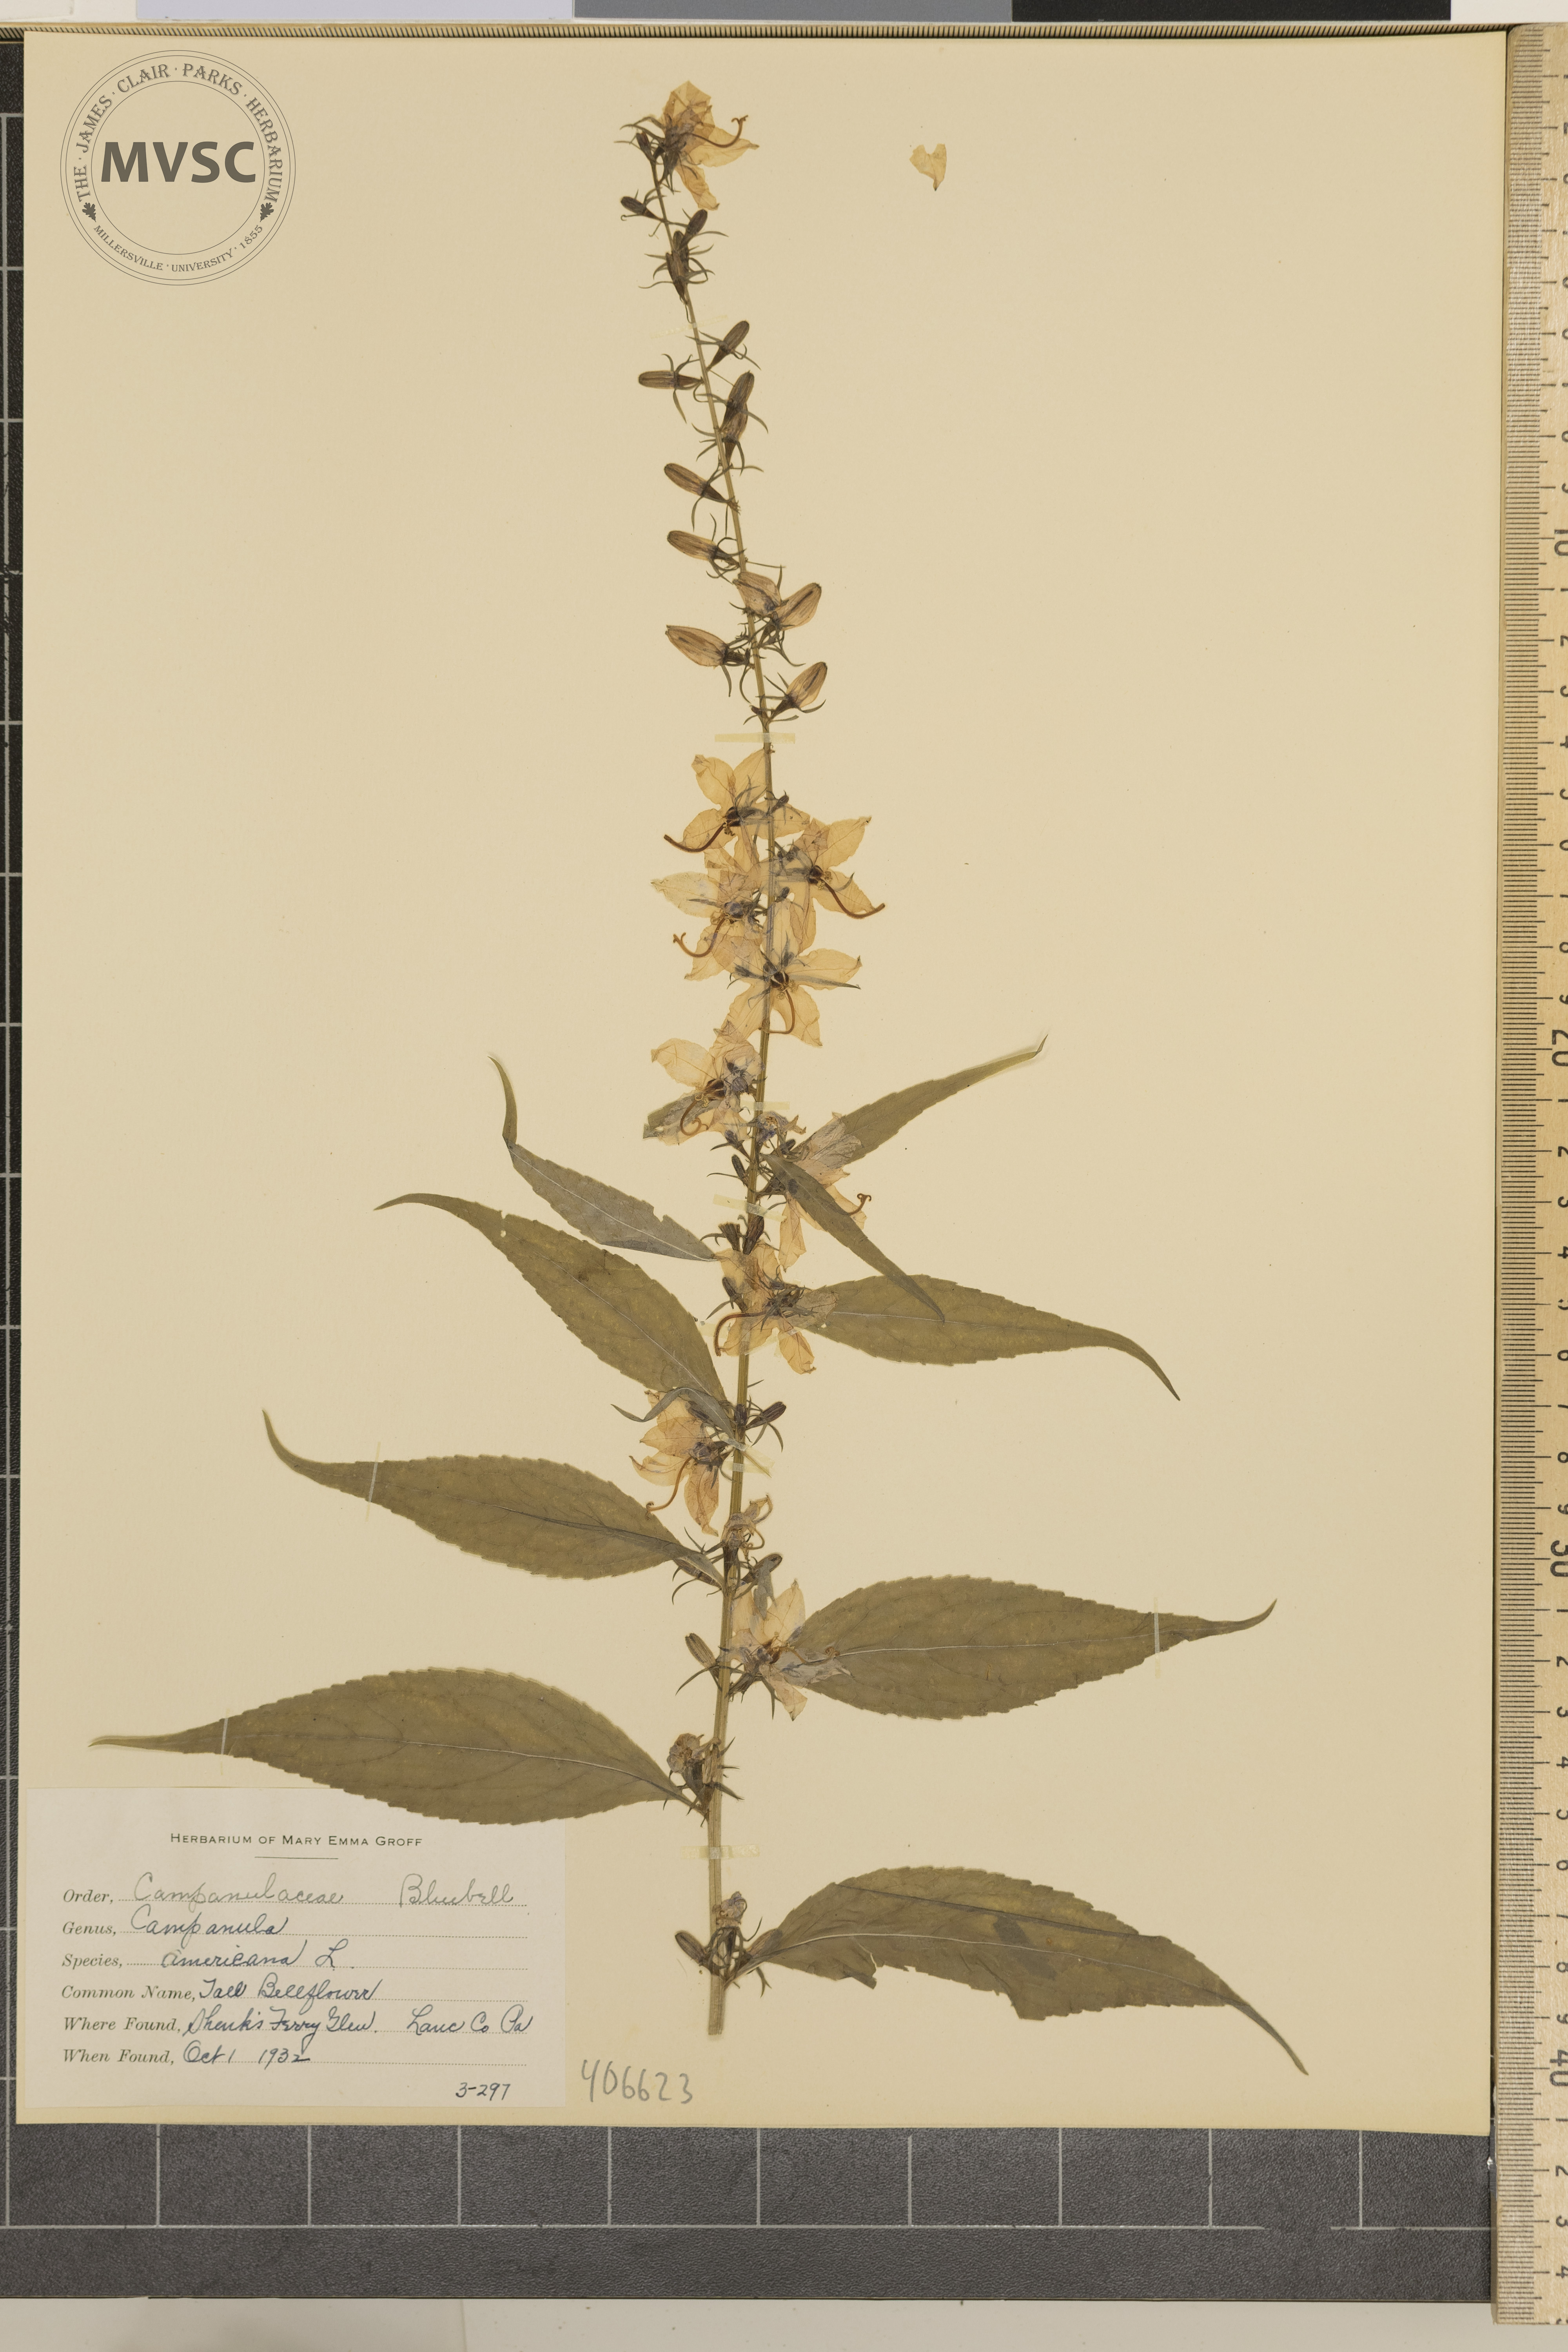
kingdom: Plantae
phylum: Tracheophyta
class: Magnoliopsida
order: Asterales
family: Campanulaceae
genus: Campanula
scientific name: Campanula americana
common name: Tall Bellflower
